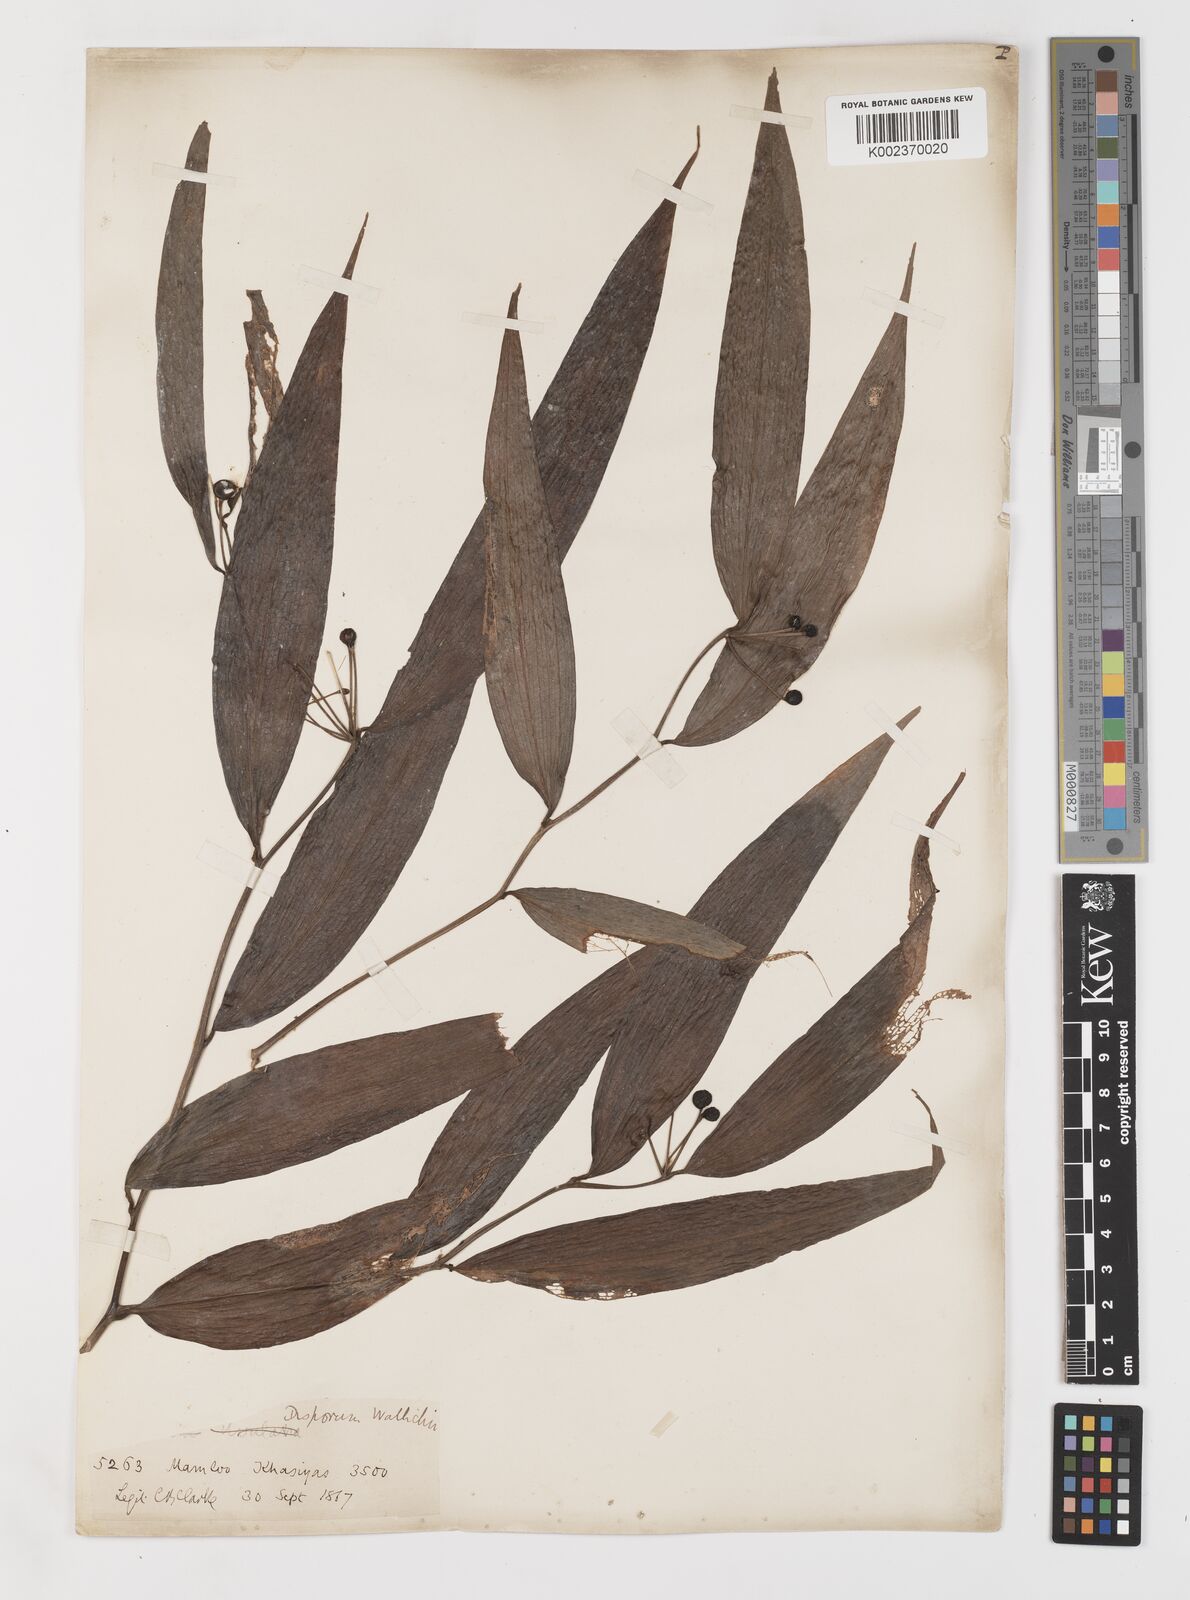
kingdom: Plantae
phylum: Tracheophyta
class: Liliopsida
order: Liliales
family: Colchicaceae
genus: Disporum
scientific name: Disporum cantoniense
